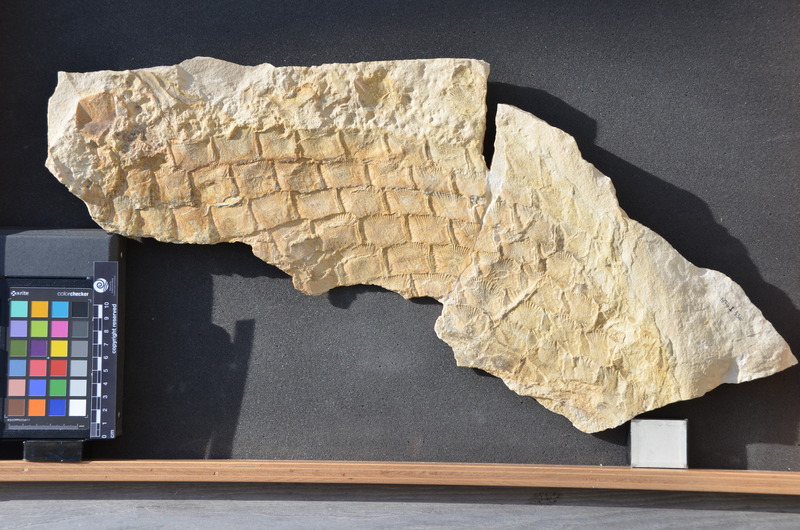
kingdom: Animalia
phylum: Chordata
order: Lepisosteiformes
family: Lepidotidae
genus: Lepidotes
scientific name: Lepidotes
